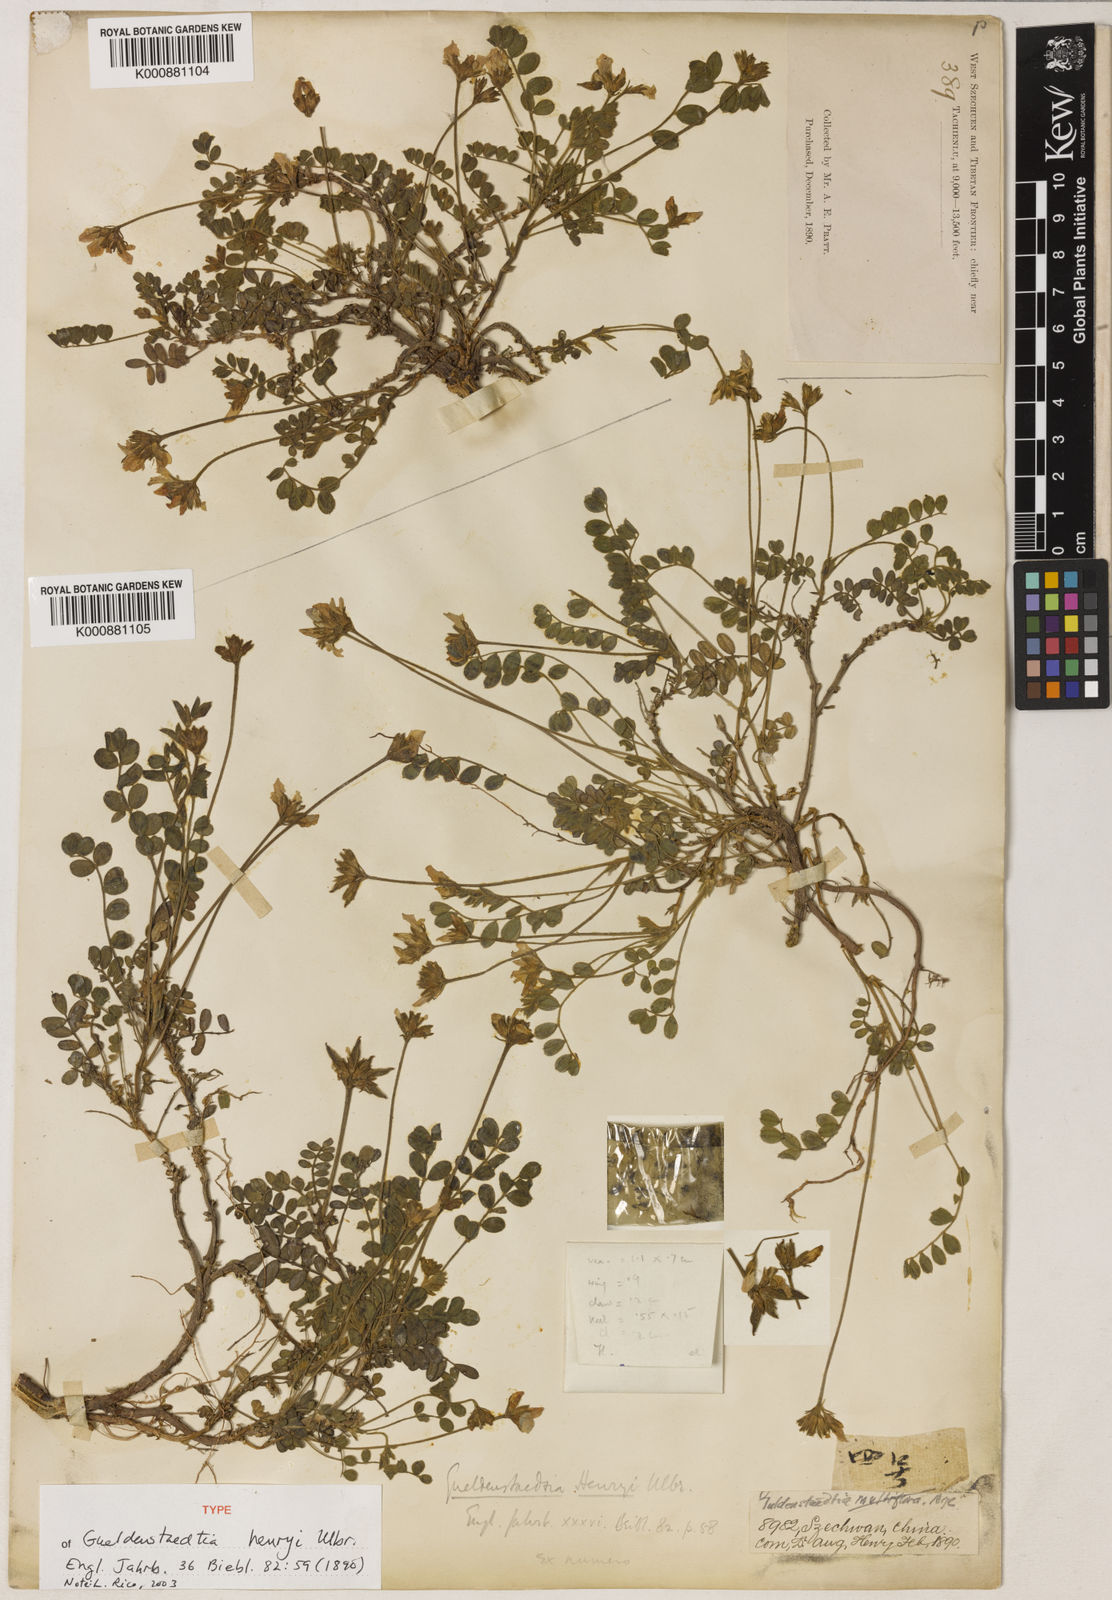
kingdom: Plantae
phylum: Tracheophyta
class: Magnoliopsida
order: Fabales
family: Fabaceae
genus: Gueldenstaedtia
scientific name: Gueldenstaedtia henryi
